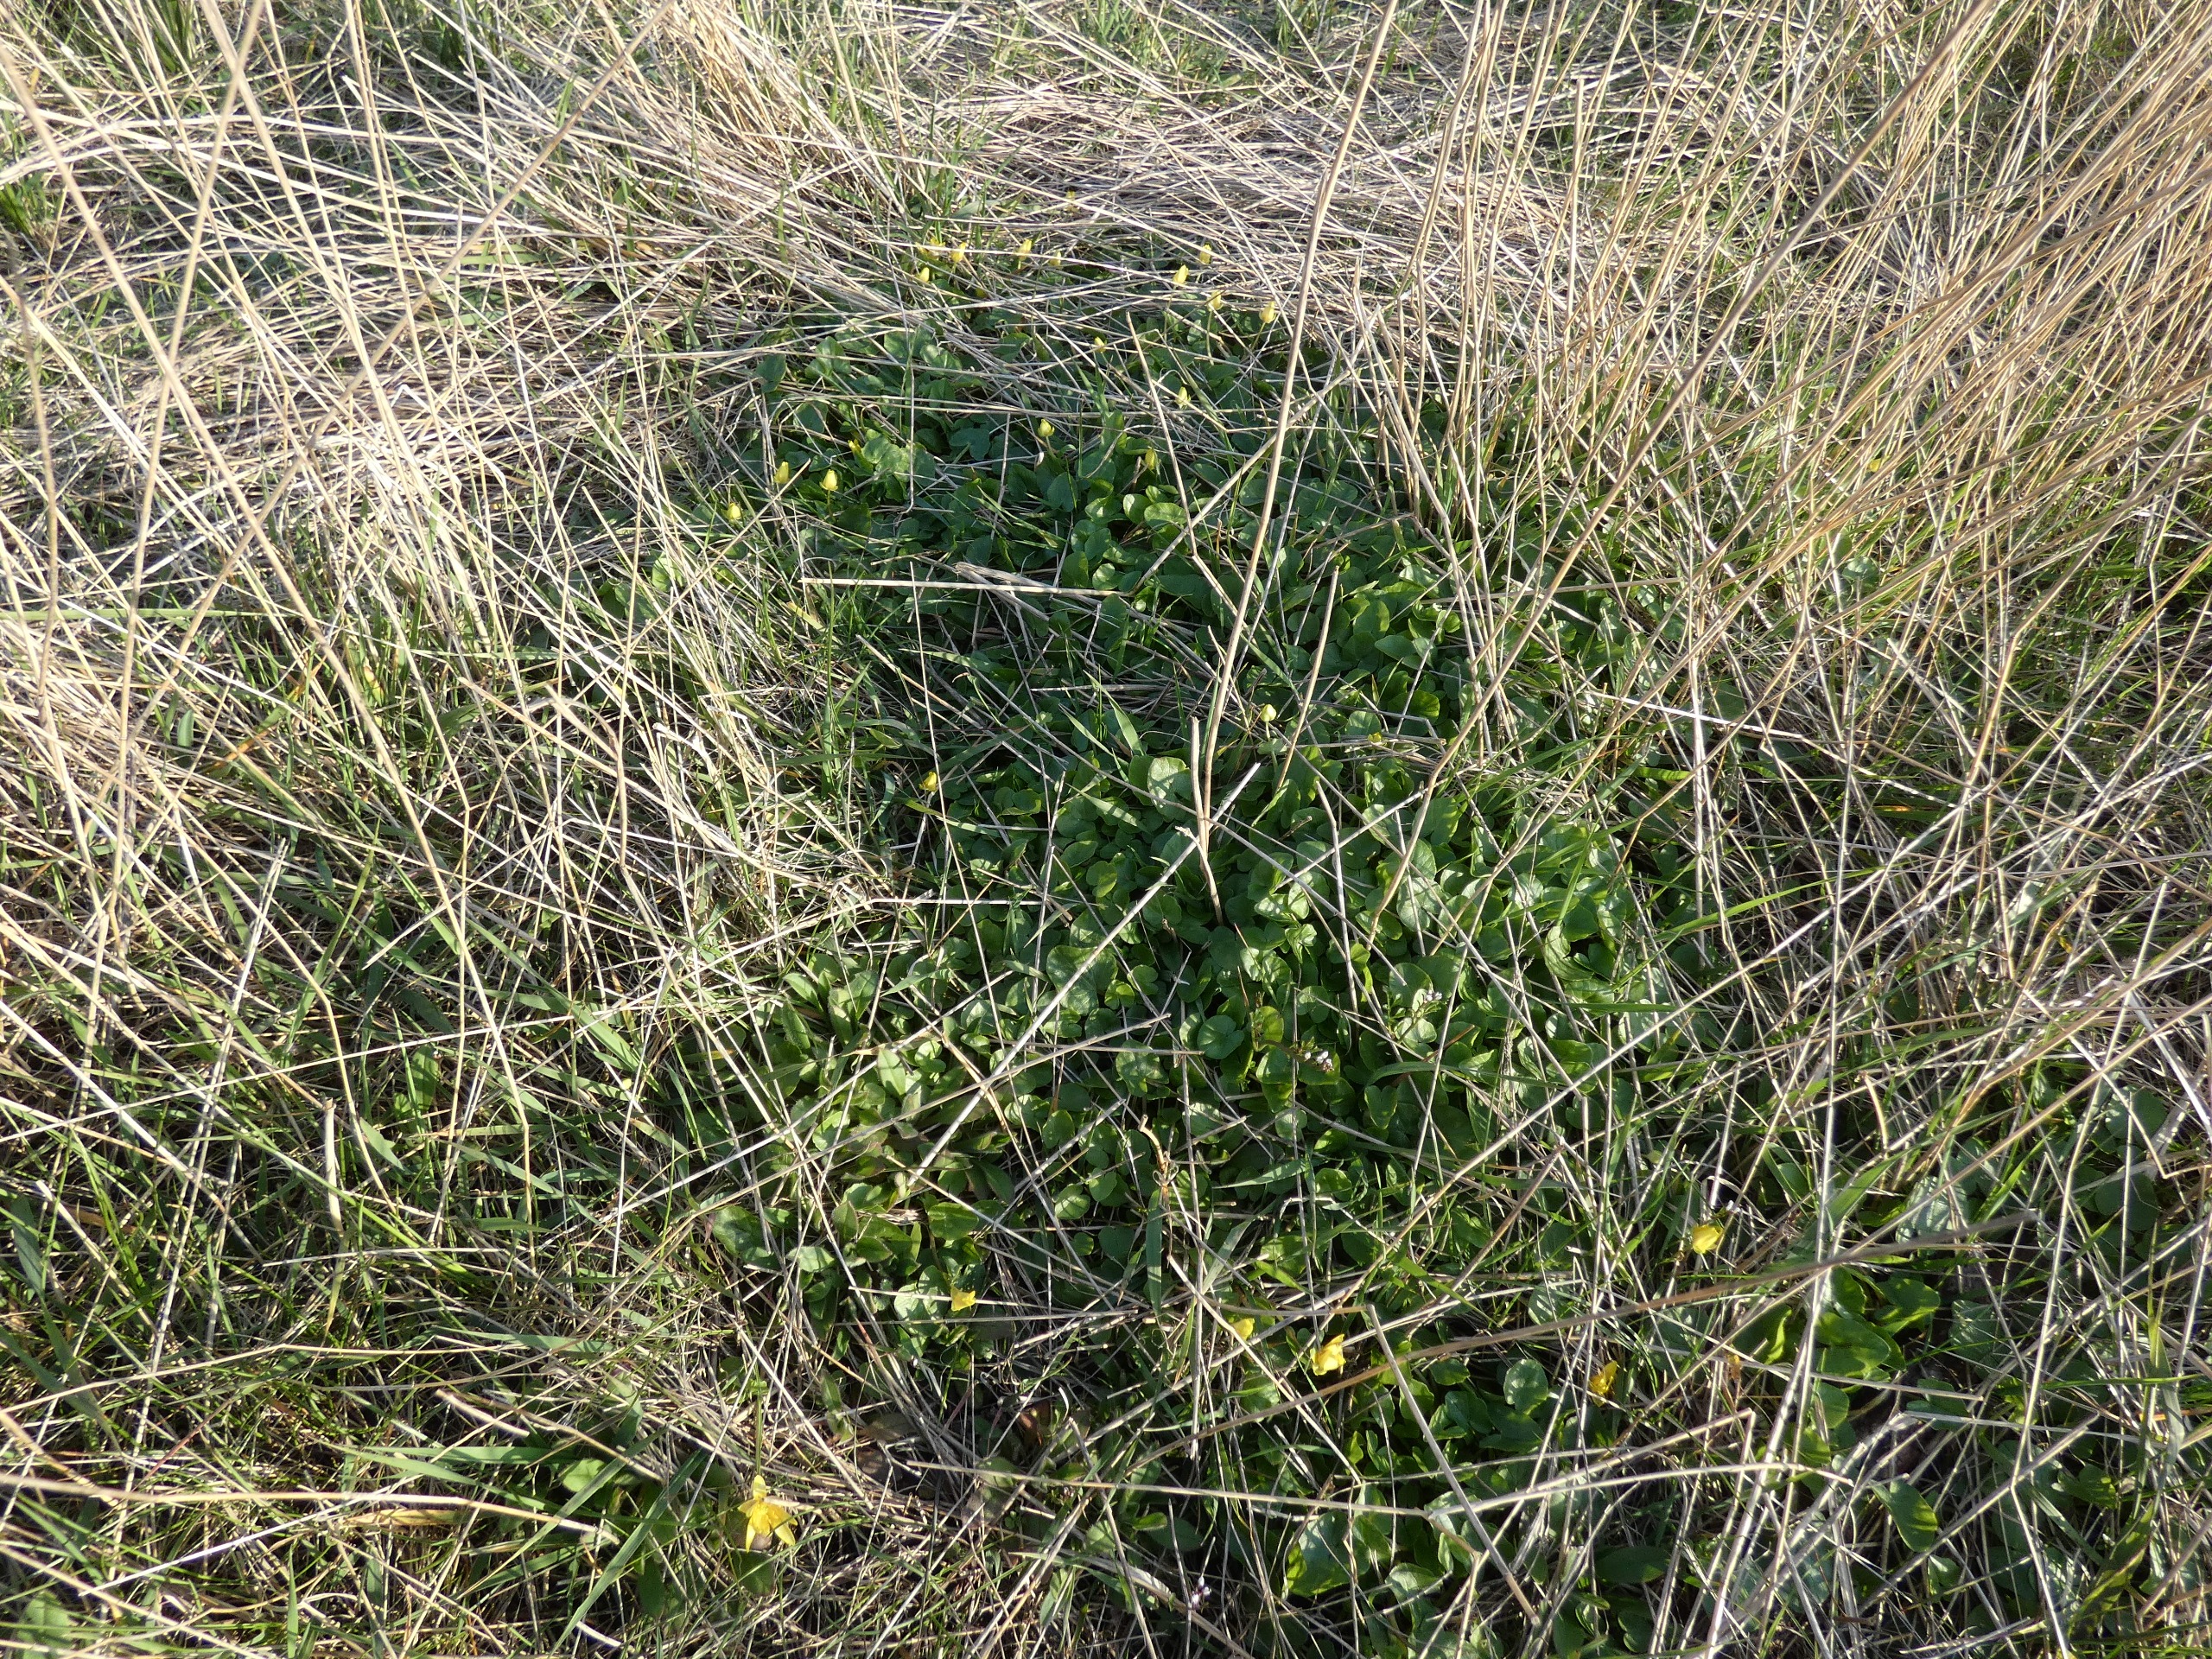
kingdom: Plantae
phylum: Tracheophyta
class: Magnoliopsida
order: Ranunculales
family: Ranunculaceae
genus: Ficaria
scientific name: Ficaria verna
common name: Vorterod
